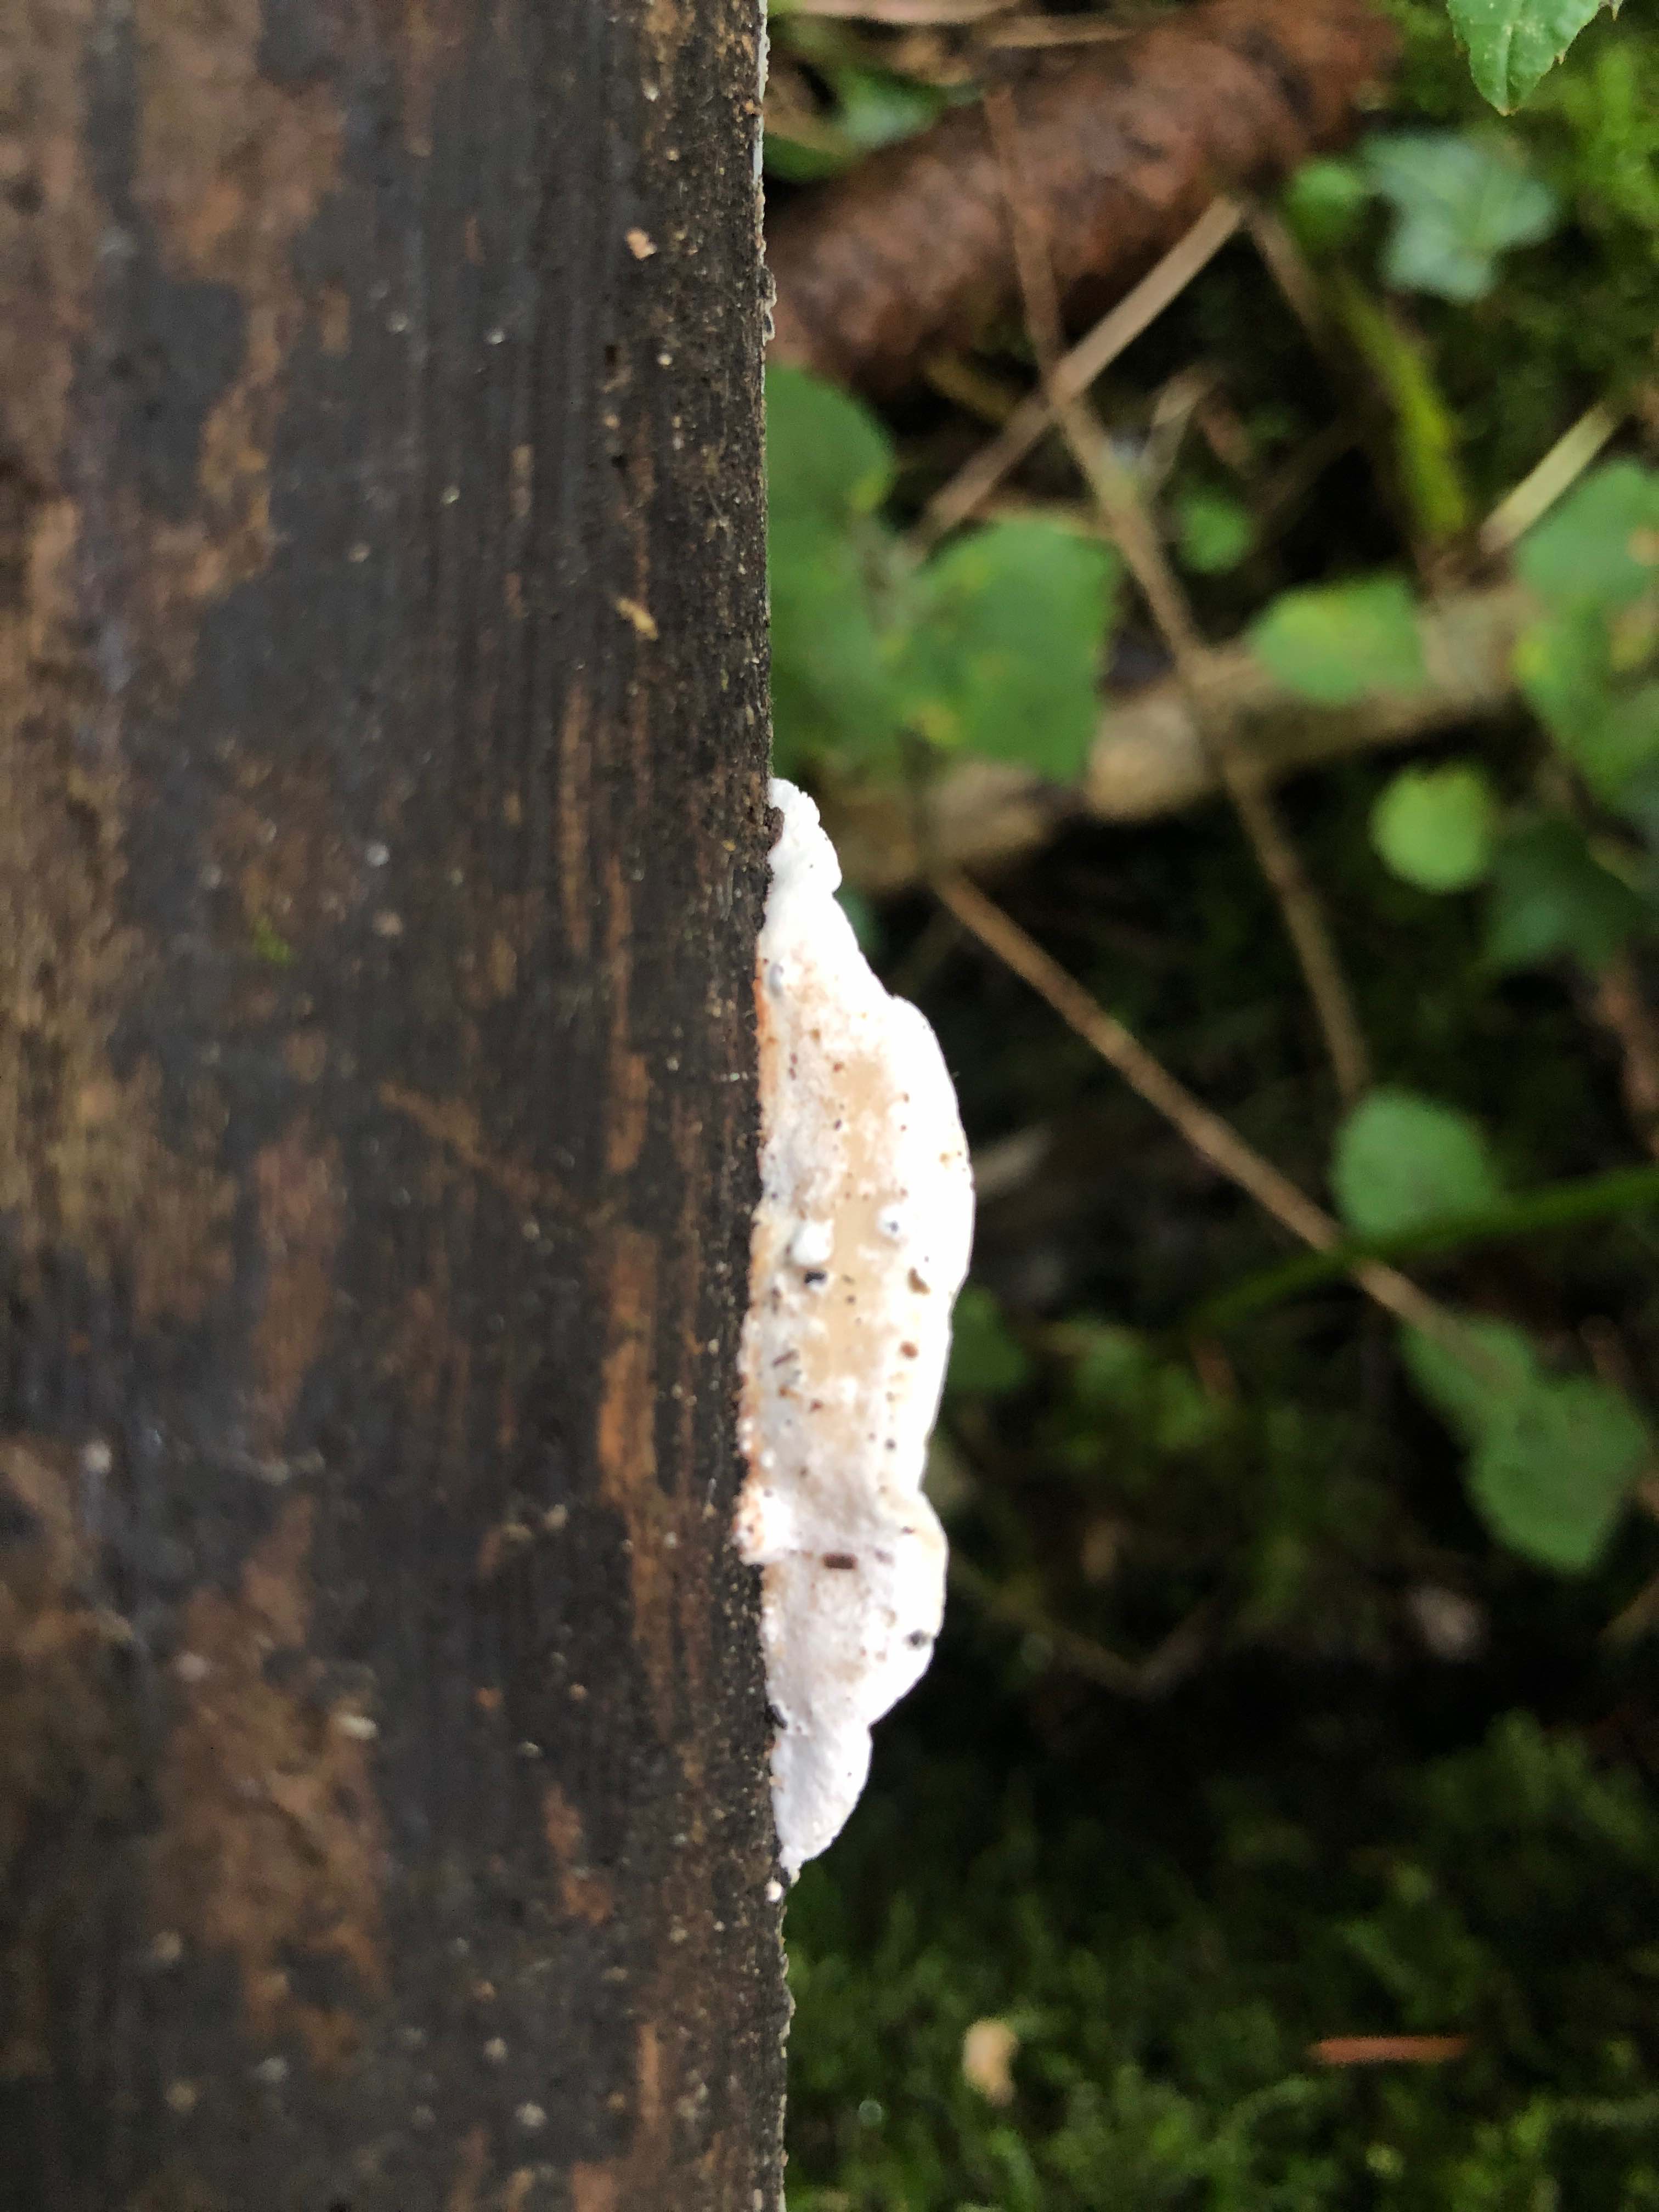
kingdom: Fungi
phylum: Basidiomycota
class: Agaricomycetes
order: Polyporales
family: Incrustoporiaceae
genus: Skeletocutis
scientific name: Skeletocutis nemoralis
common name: stor krystalporesvamp
